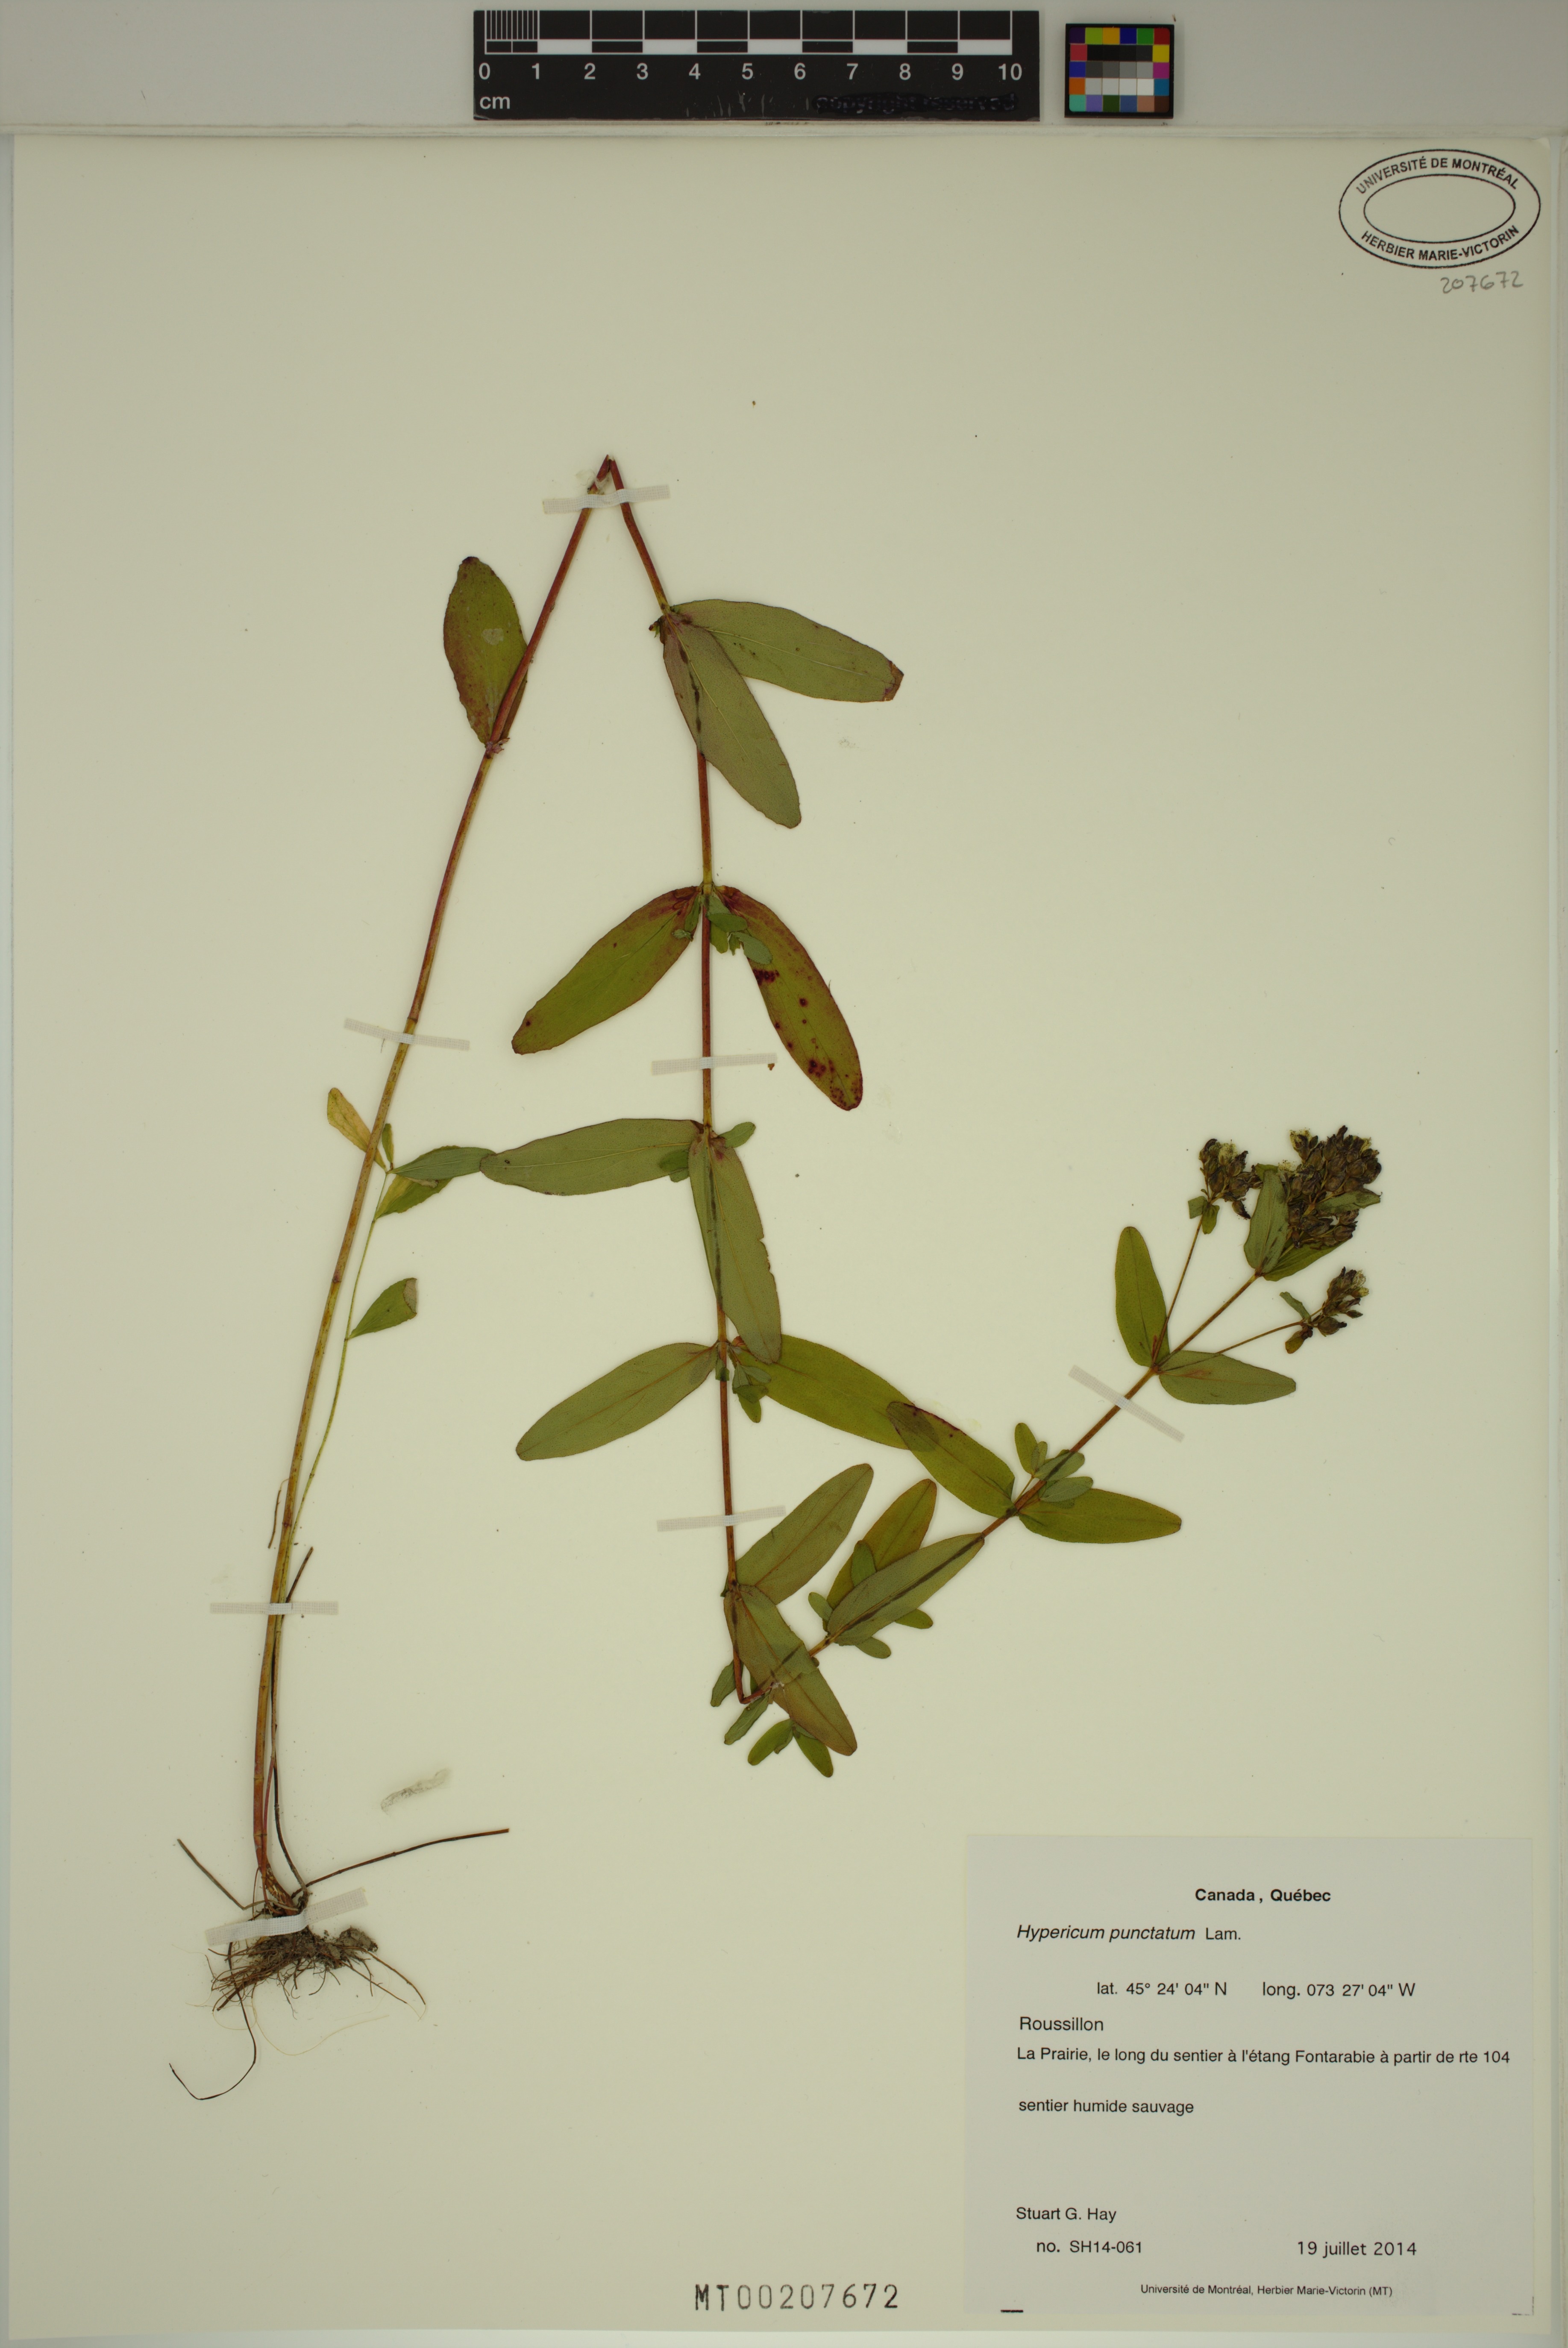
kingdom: Plantae
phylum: Tracheophyta
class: Magnoliopsida
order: Malpighiales
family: Hypericaceae
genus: Hypericum
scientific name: Hypericum punctatum
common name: Spotted st. john's-wort
